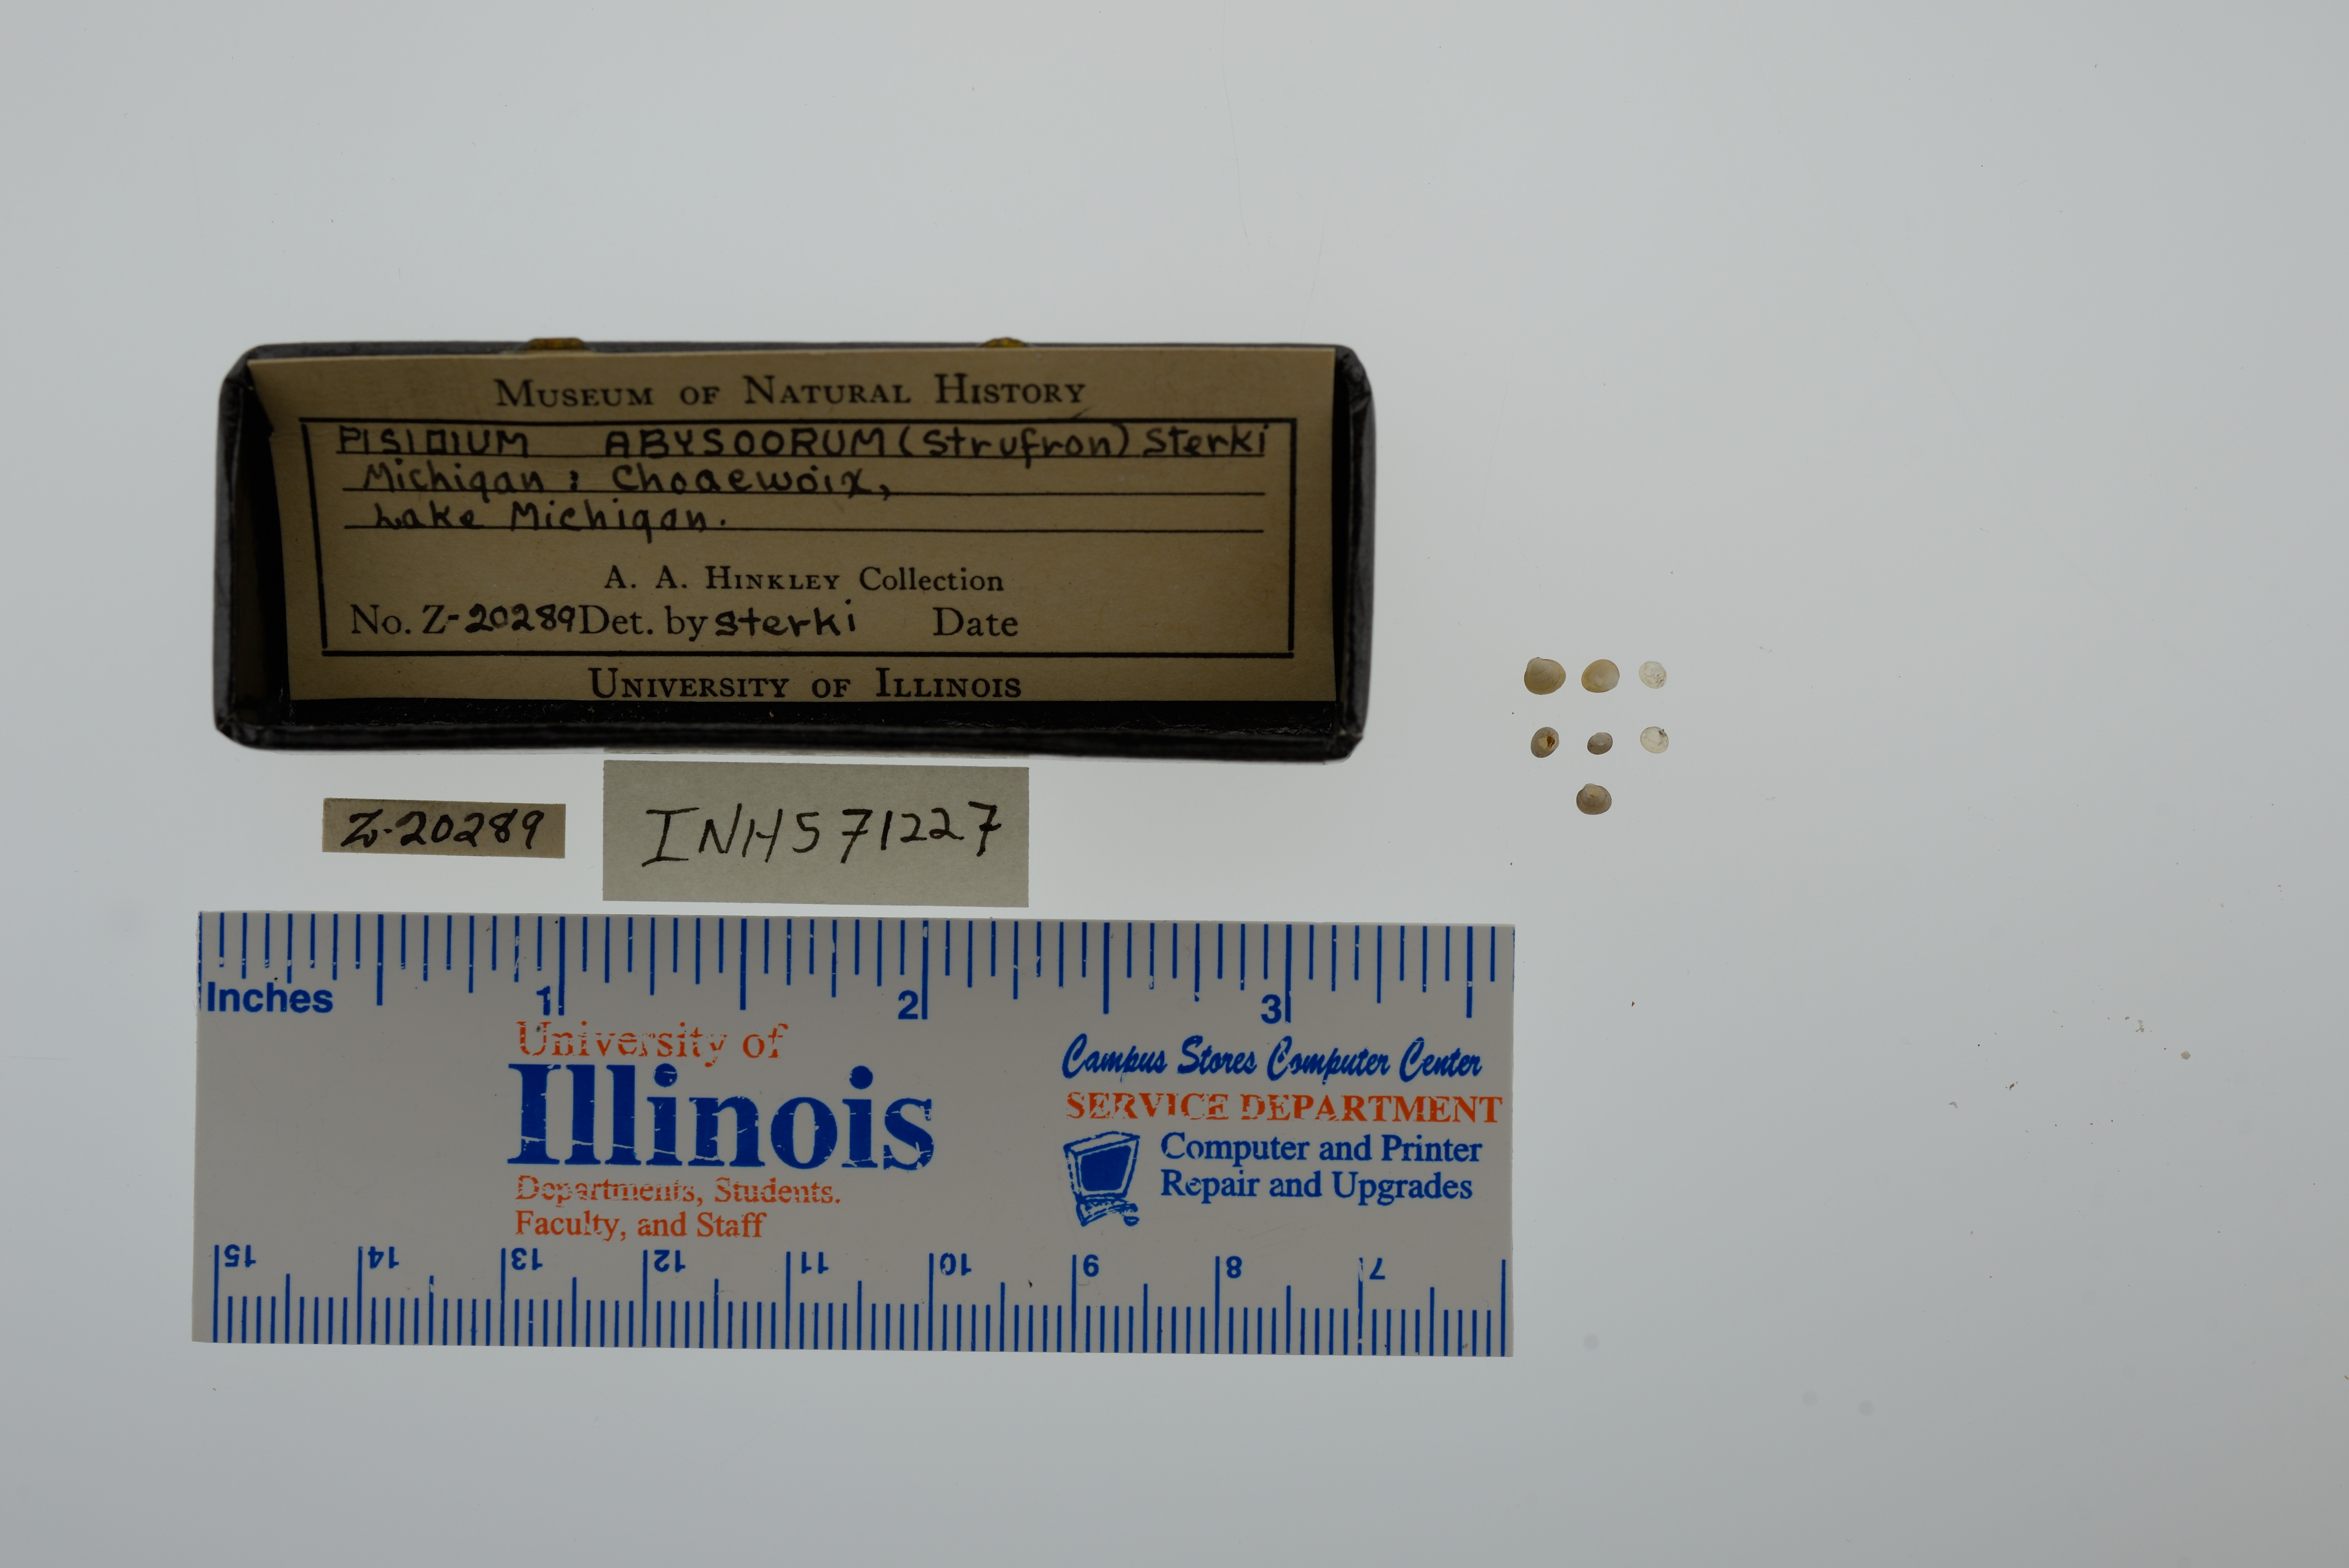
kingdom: Animalia
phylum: Mollusca
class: Bivalvia
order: Sphaeriida
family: Sphaeriidae
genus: Euglesa
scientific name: Euglesa conventus
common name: Arctic-alpine pea clam
